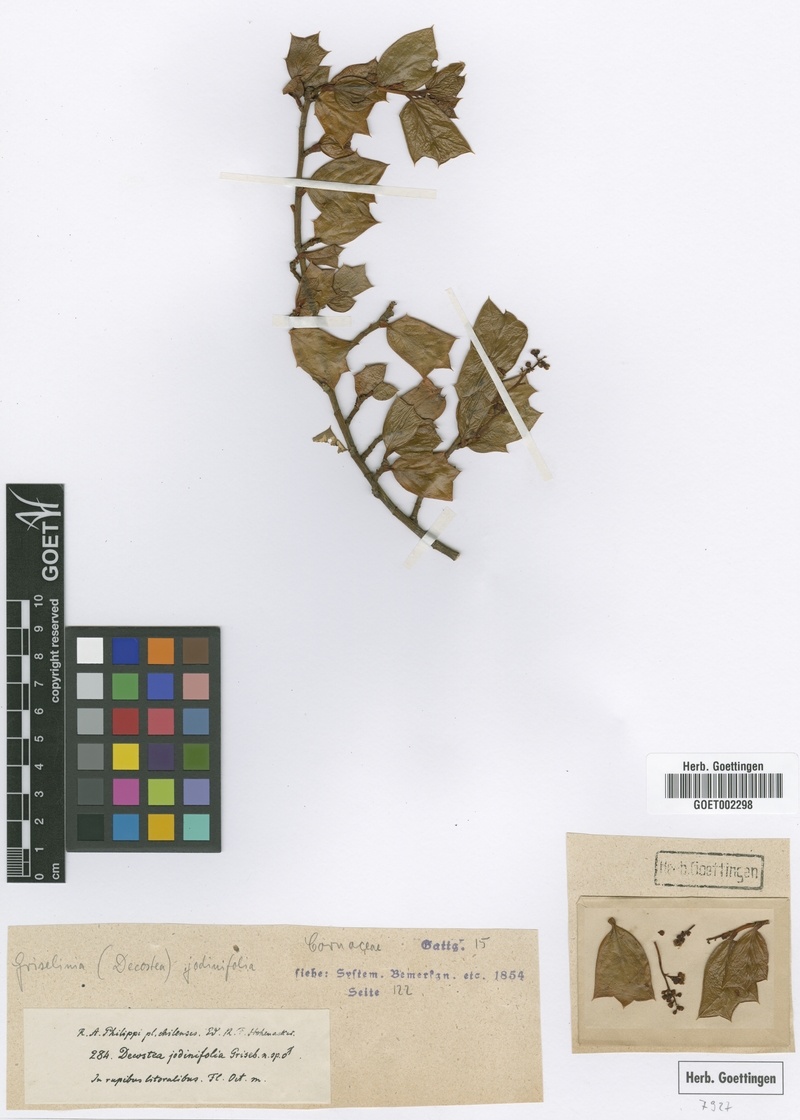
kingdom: Plantae
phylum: Tracheophyta
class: Magnoliopsida
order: Apiales
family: Griseliniaceae
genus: Griselinia
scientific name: Griselinia jodinifolia
